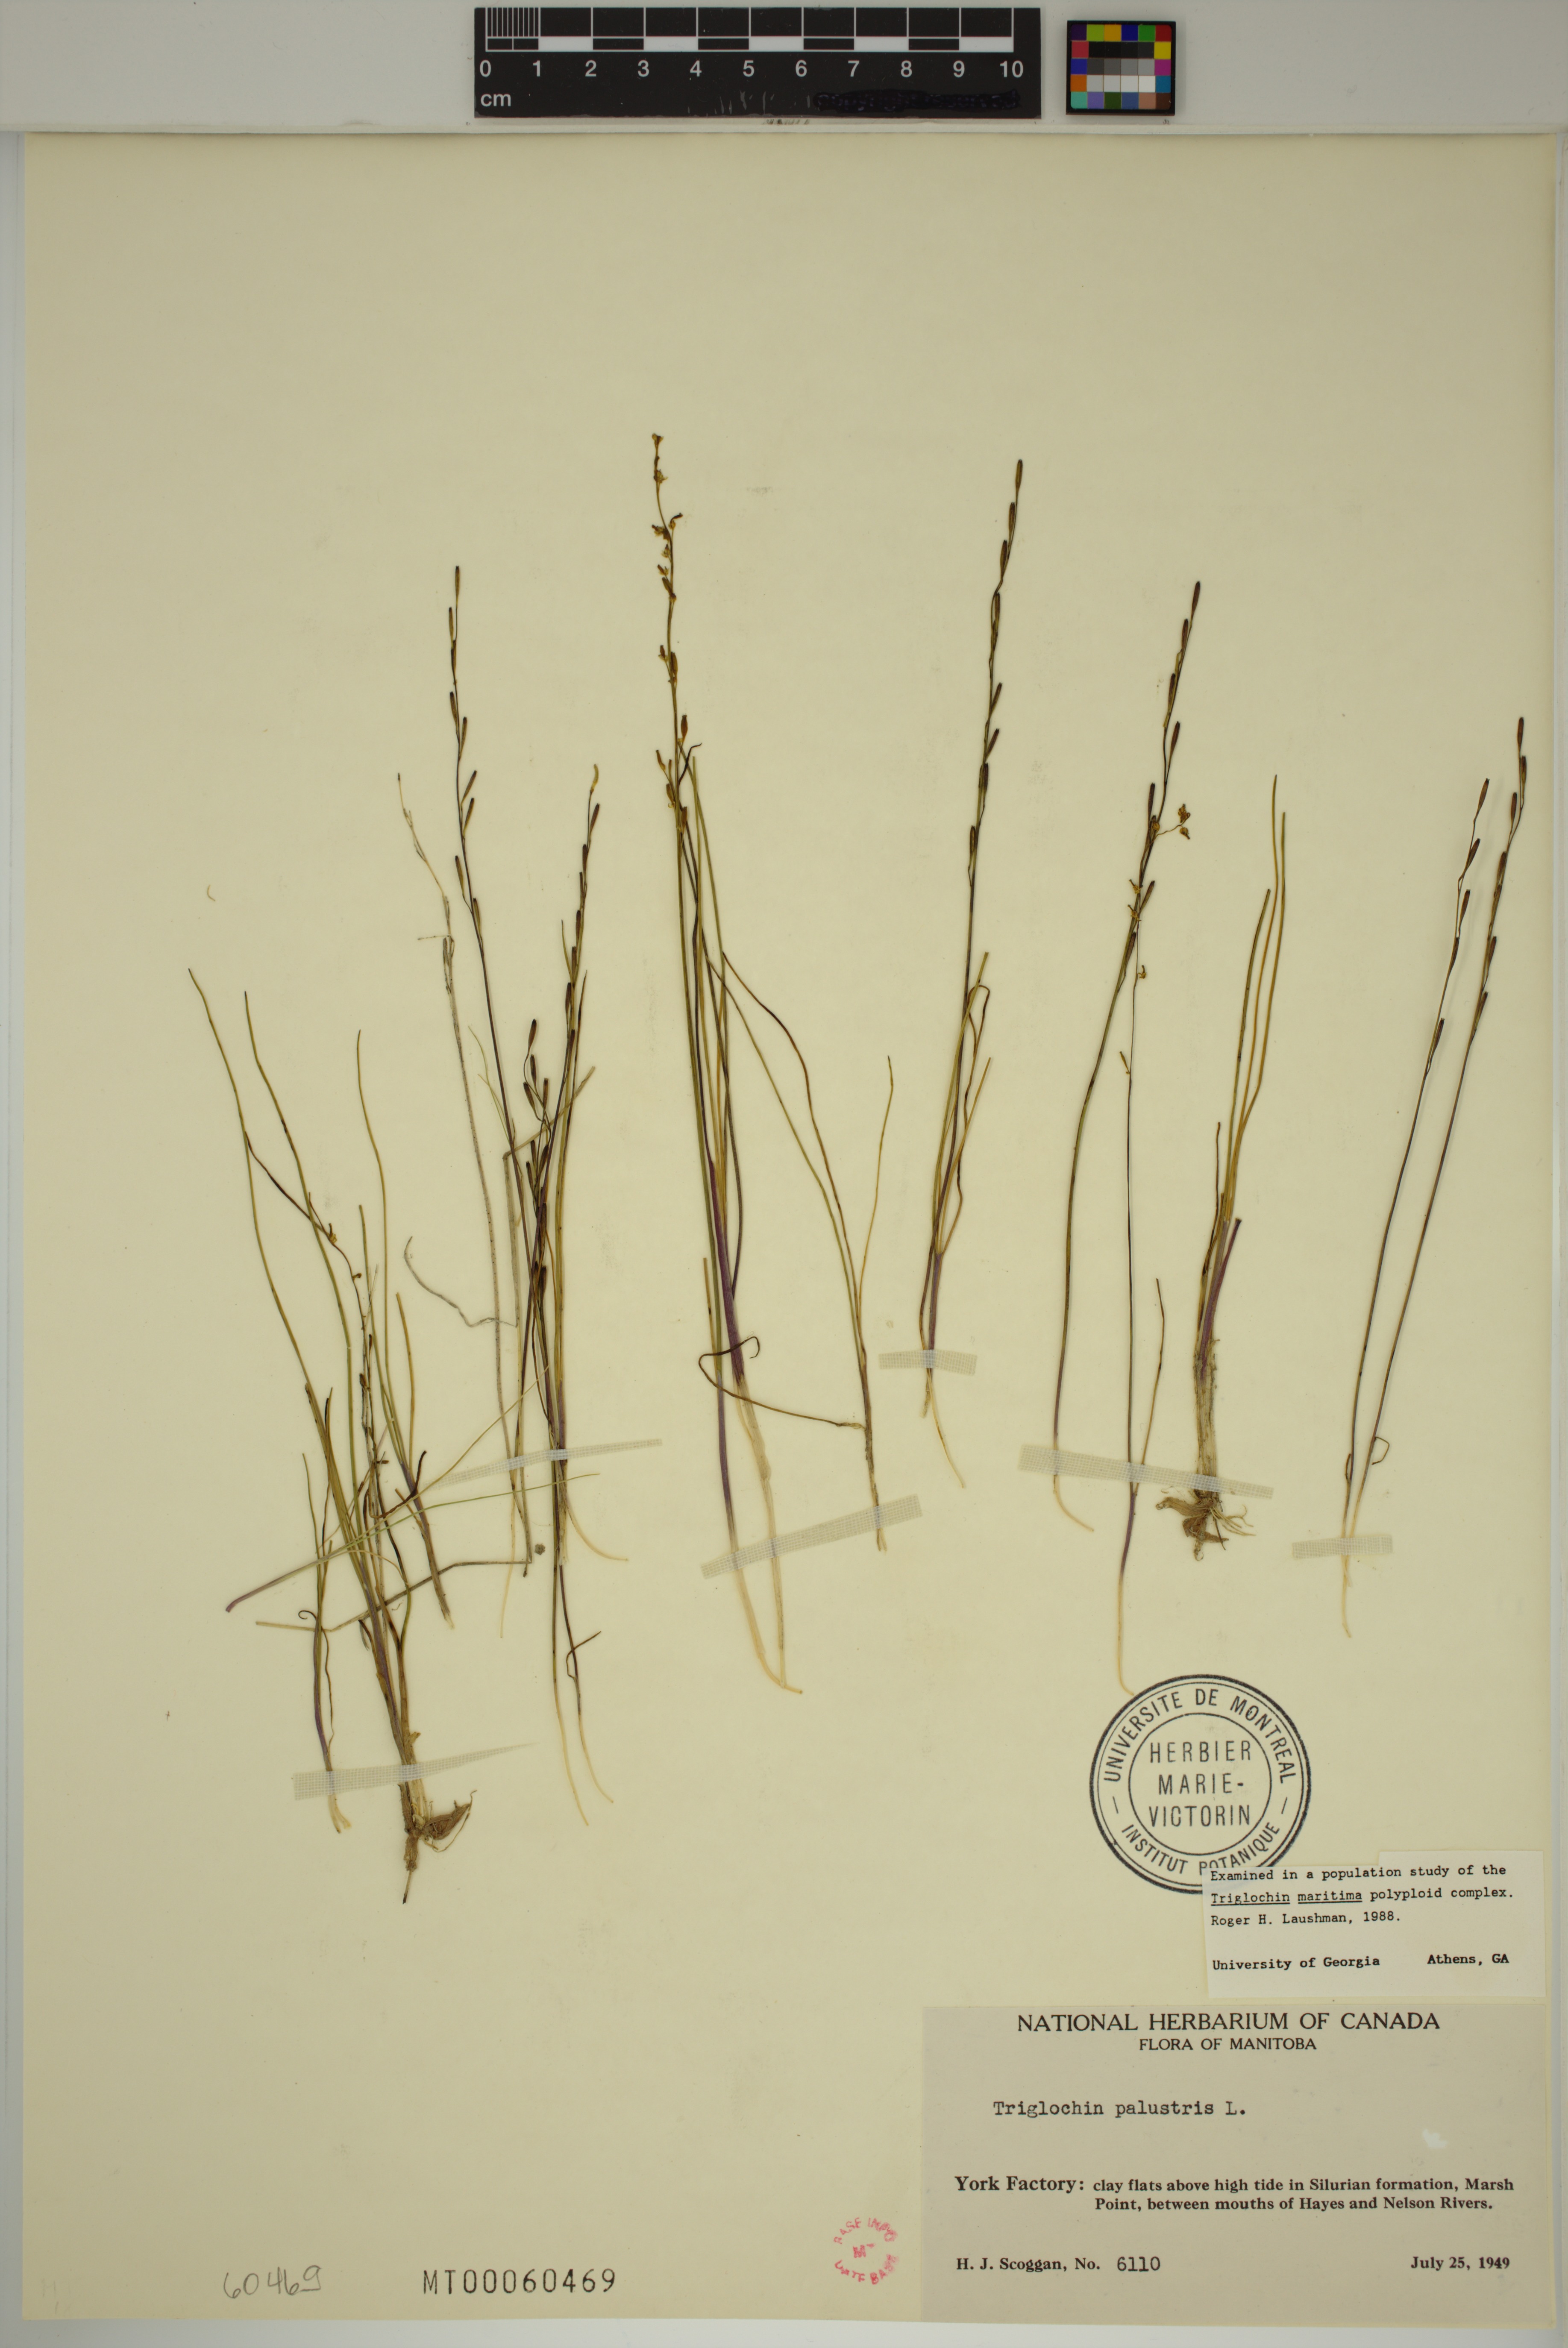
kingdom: Plantae
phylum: Tracheophyta
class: Liliopsida
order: Alismatales
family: Juncaginaceae
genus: Triglochin
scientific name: Triglochin palustris
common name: Marsh arrowgrass
